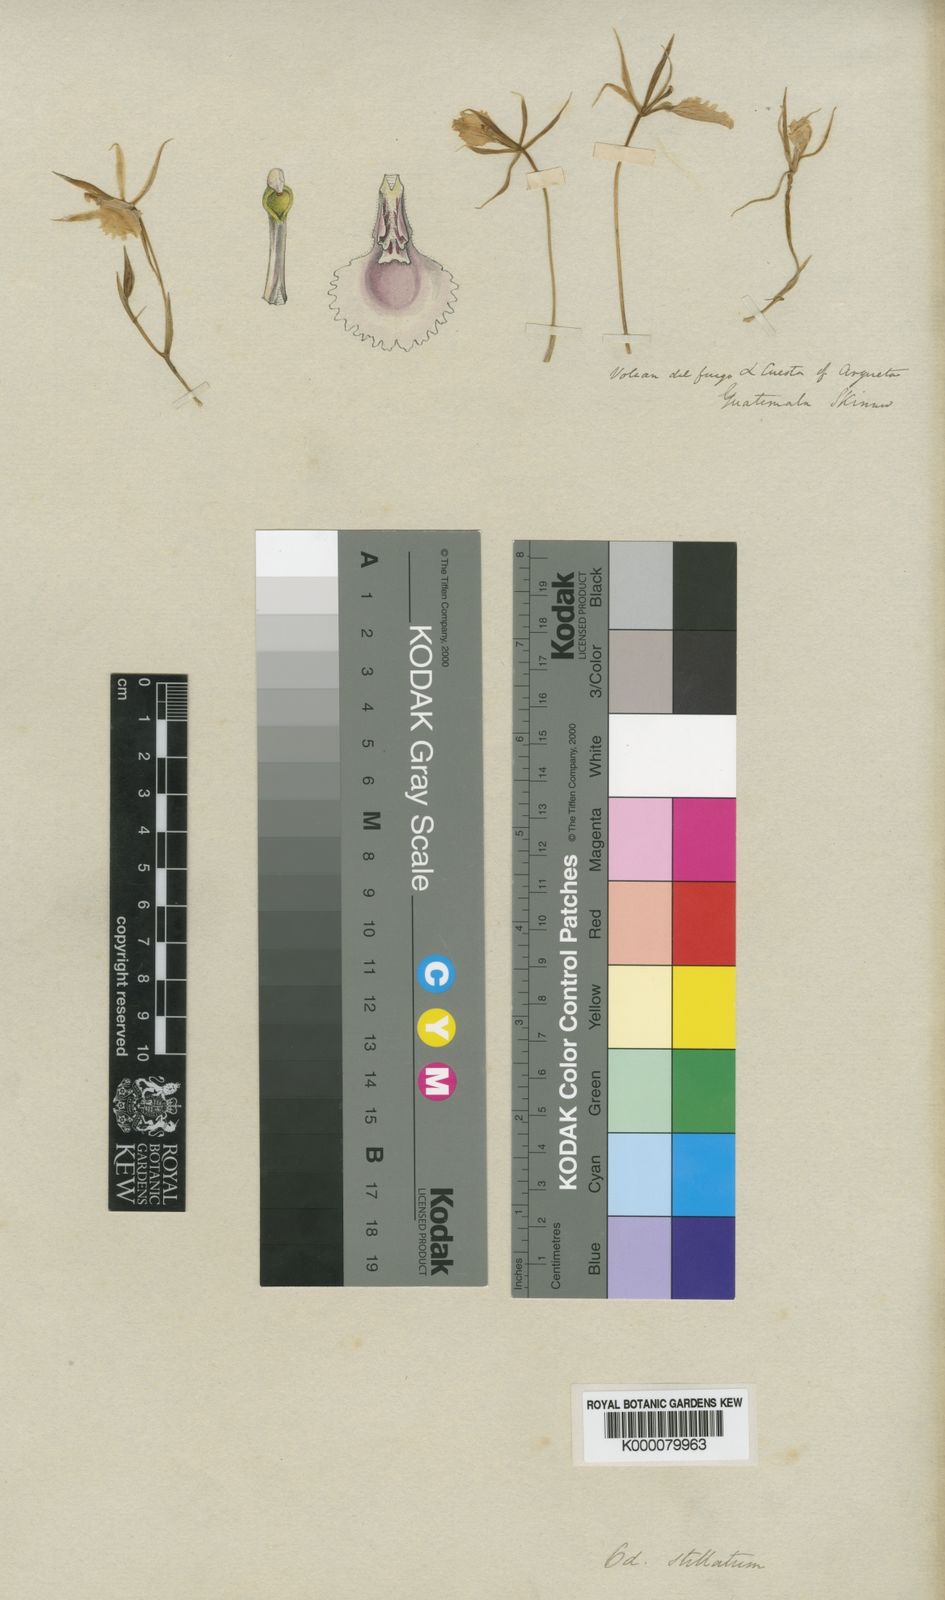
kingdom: Plantae
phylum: Tracheophyta
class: Liliopsida
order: Asparagales
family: Orchidaceae
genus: Rhynchostele
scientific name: Rhynchostele stellata
